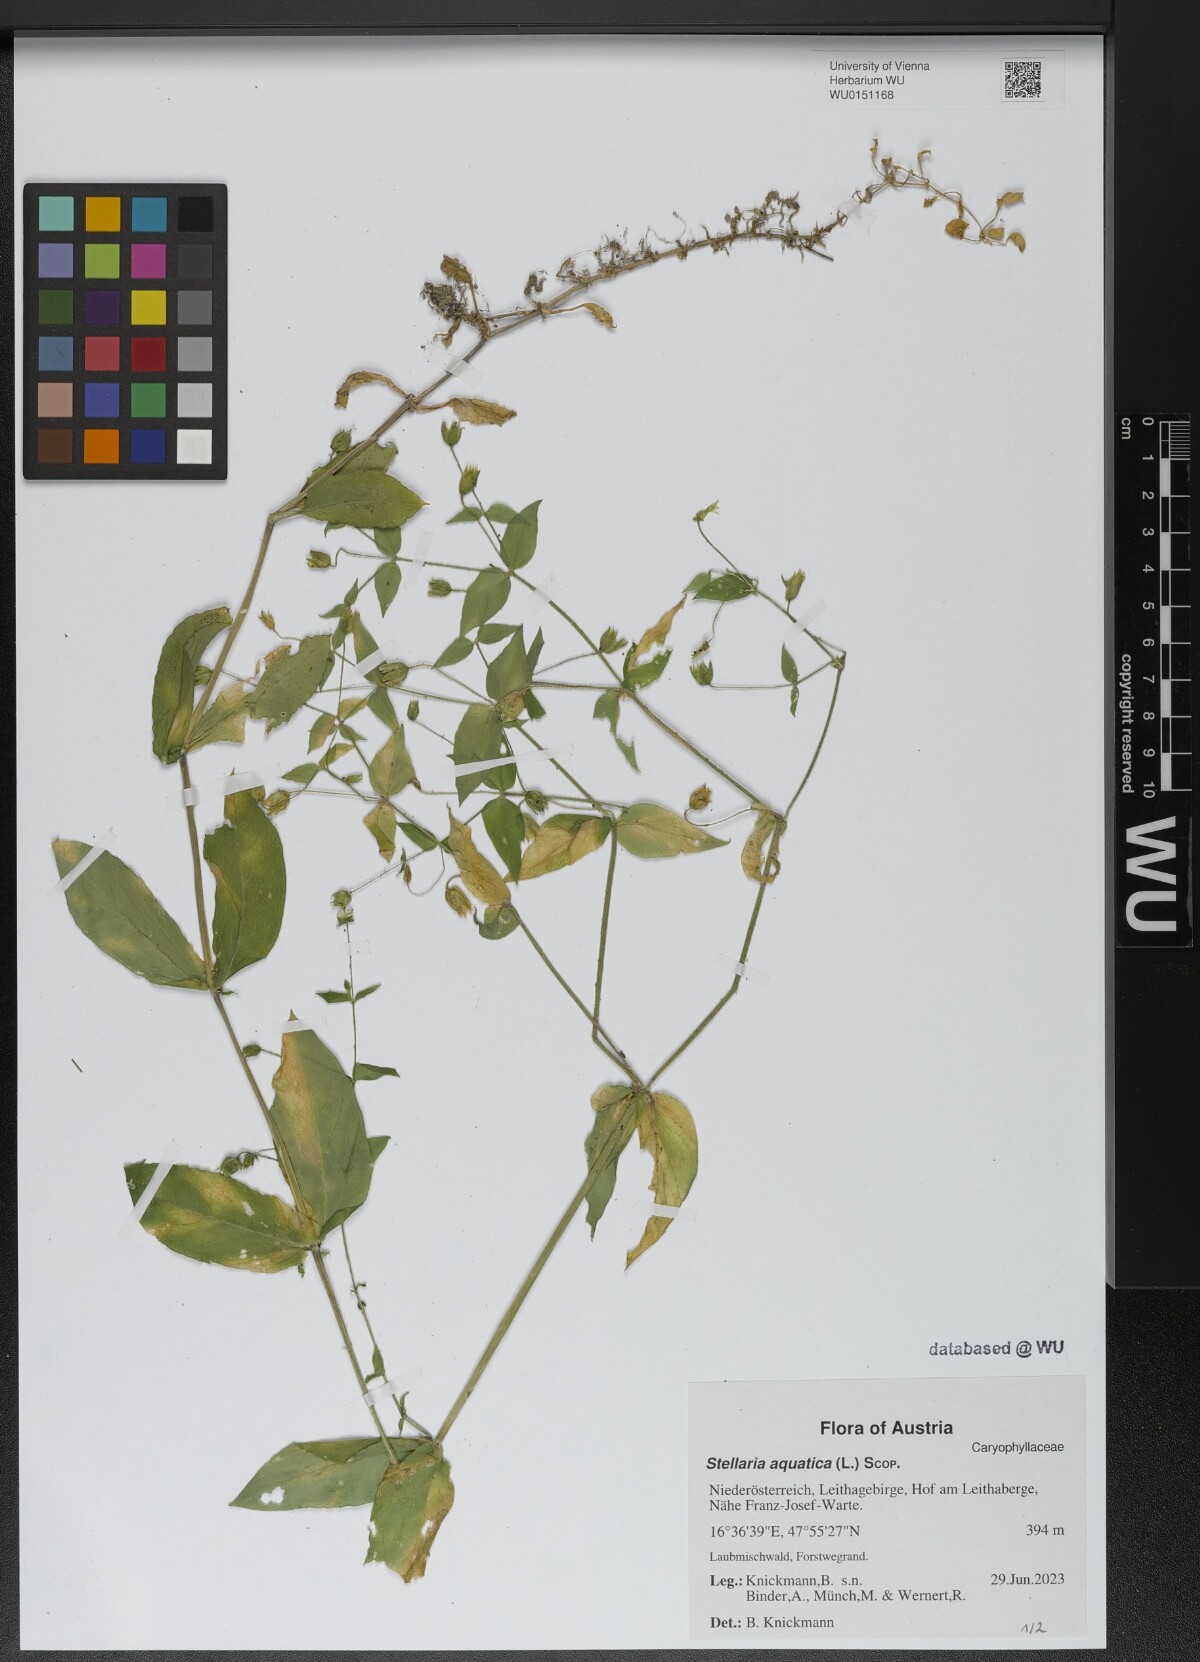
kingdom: Plantae
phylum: Tracheophyta
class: Magnoliopsida
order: Caryophyllales
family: Caryophyllaceae
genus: Stellaria
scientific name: Stellaria aquatica
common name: Water chickweed
